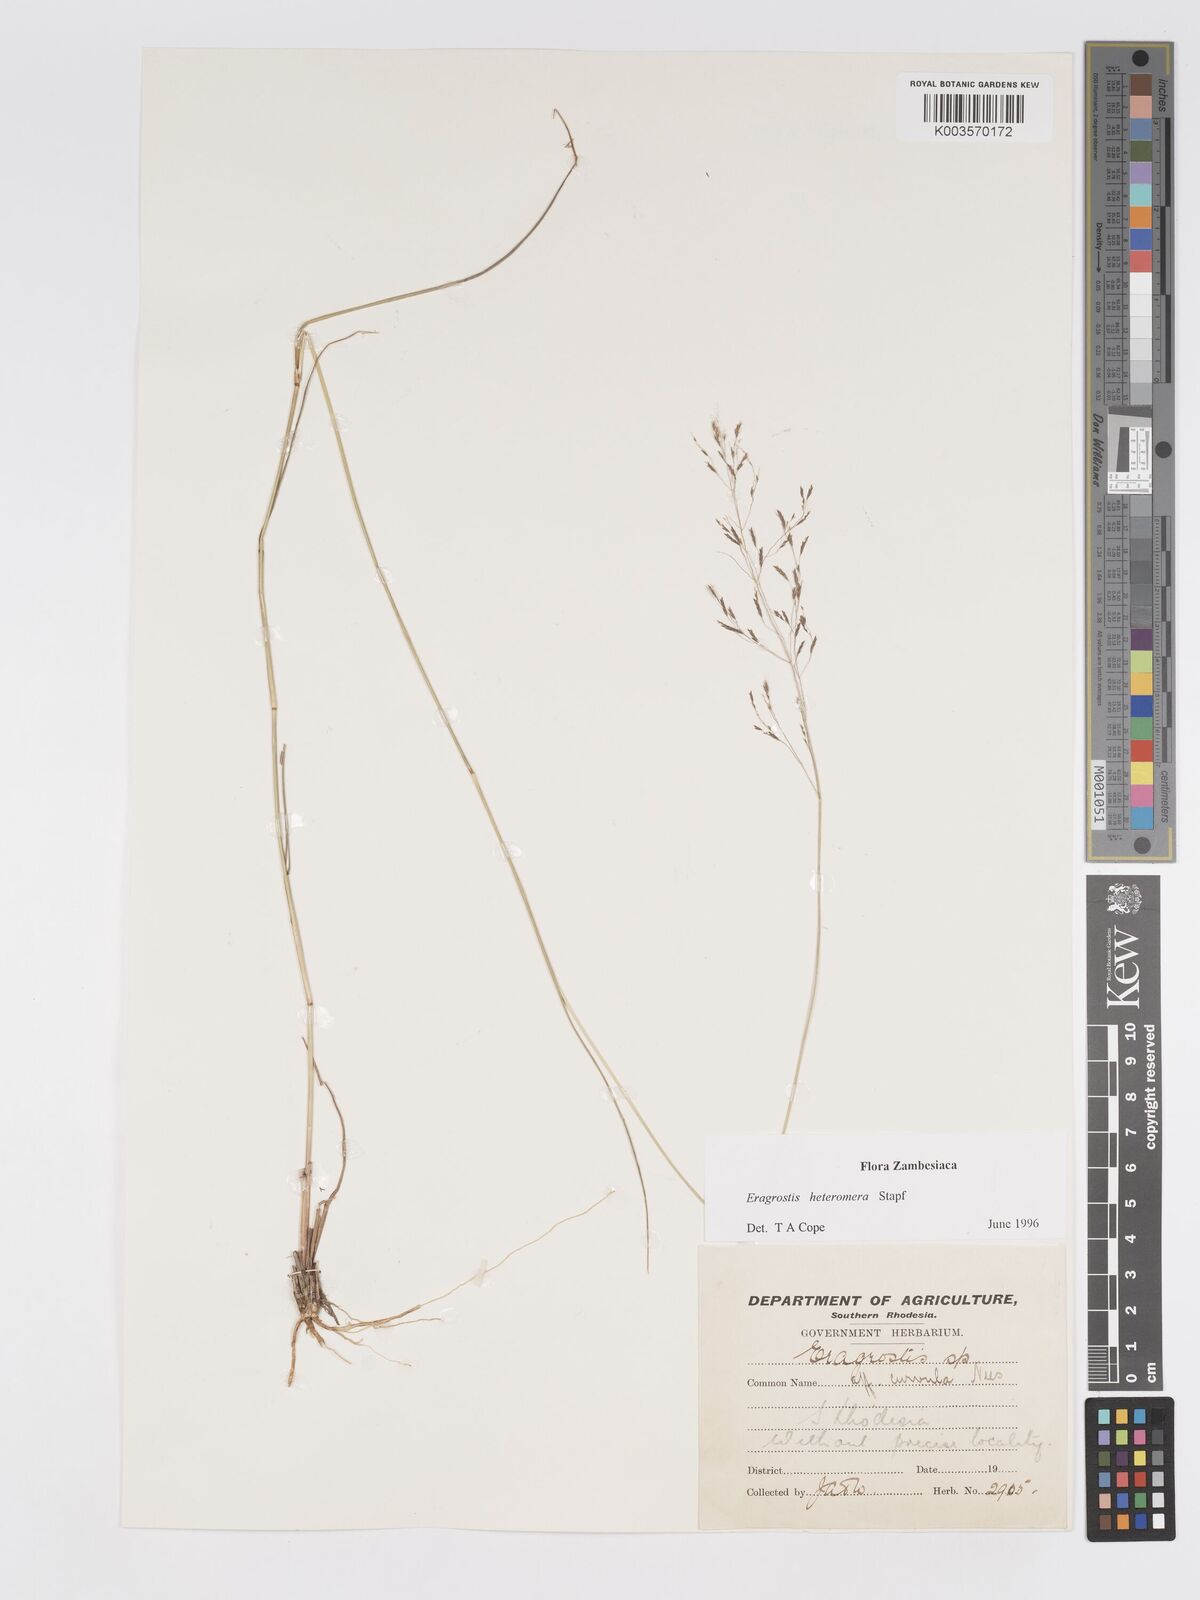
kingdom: Plantae
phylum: Tracheophyta
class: Liliopsida
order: Poales
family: Poaceae
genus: Eragrostis
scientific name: Eragrostis heteromera
